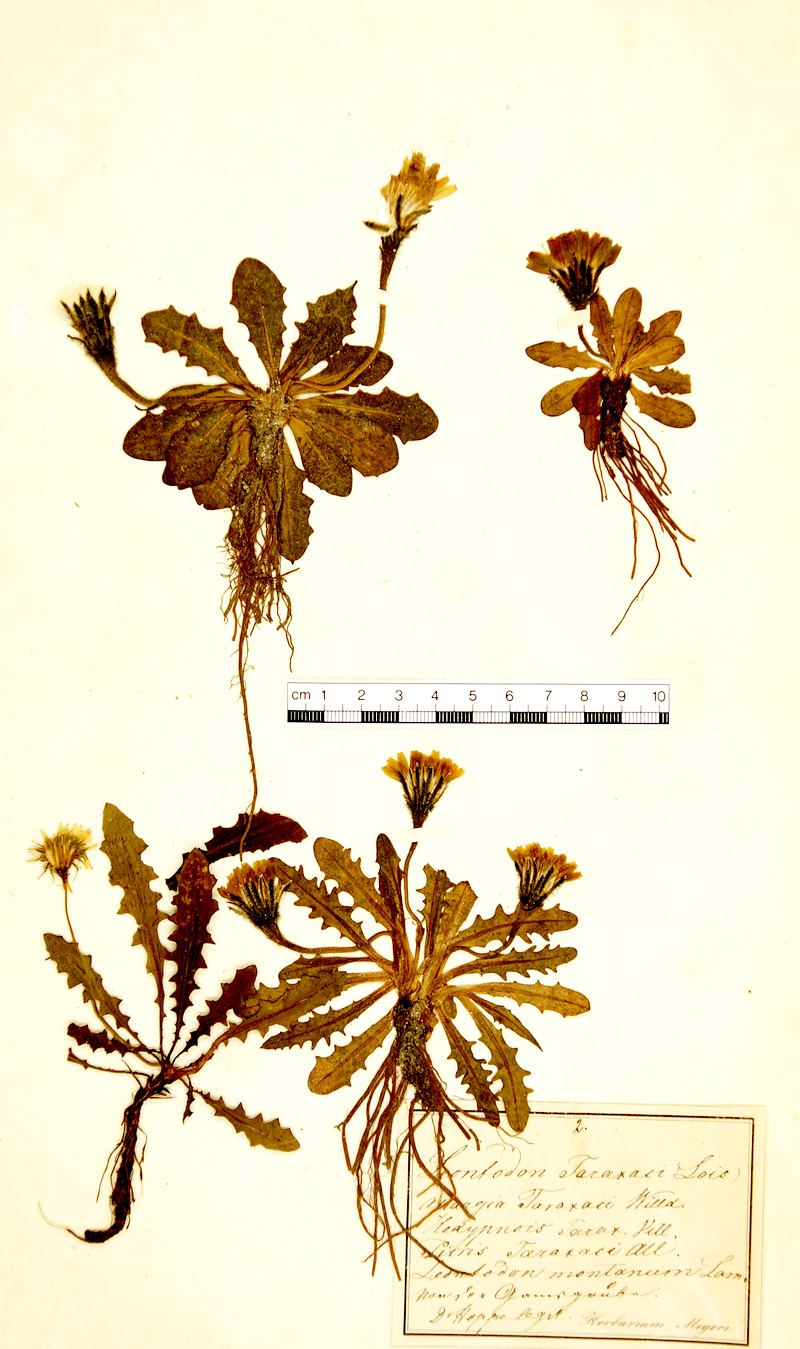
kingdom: Plantae
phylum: Tracheophyta
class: Magnoliopsida
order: Asterales
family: Asteraceae
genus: Scorzoneroides
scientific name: Scorzoneroides montana
